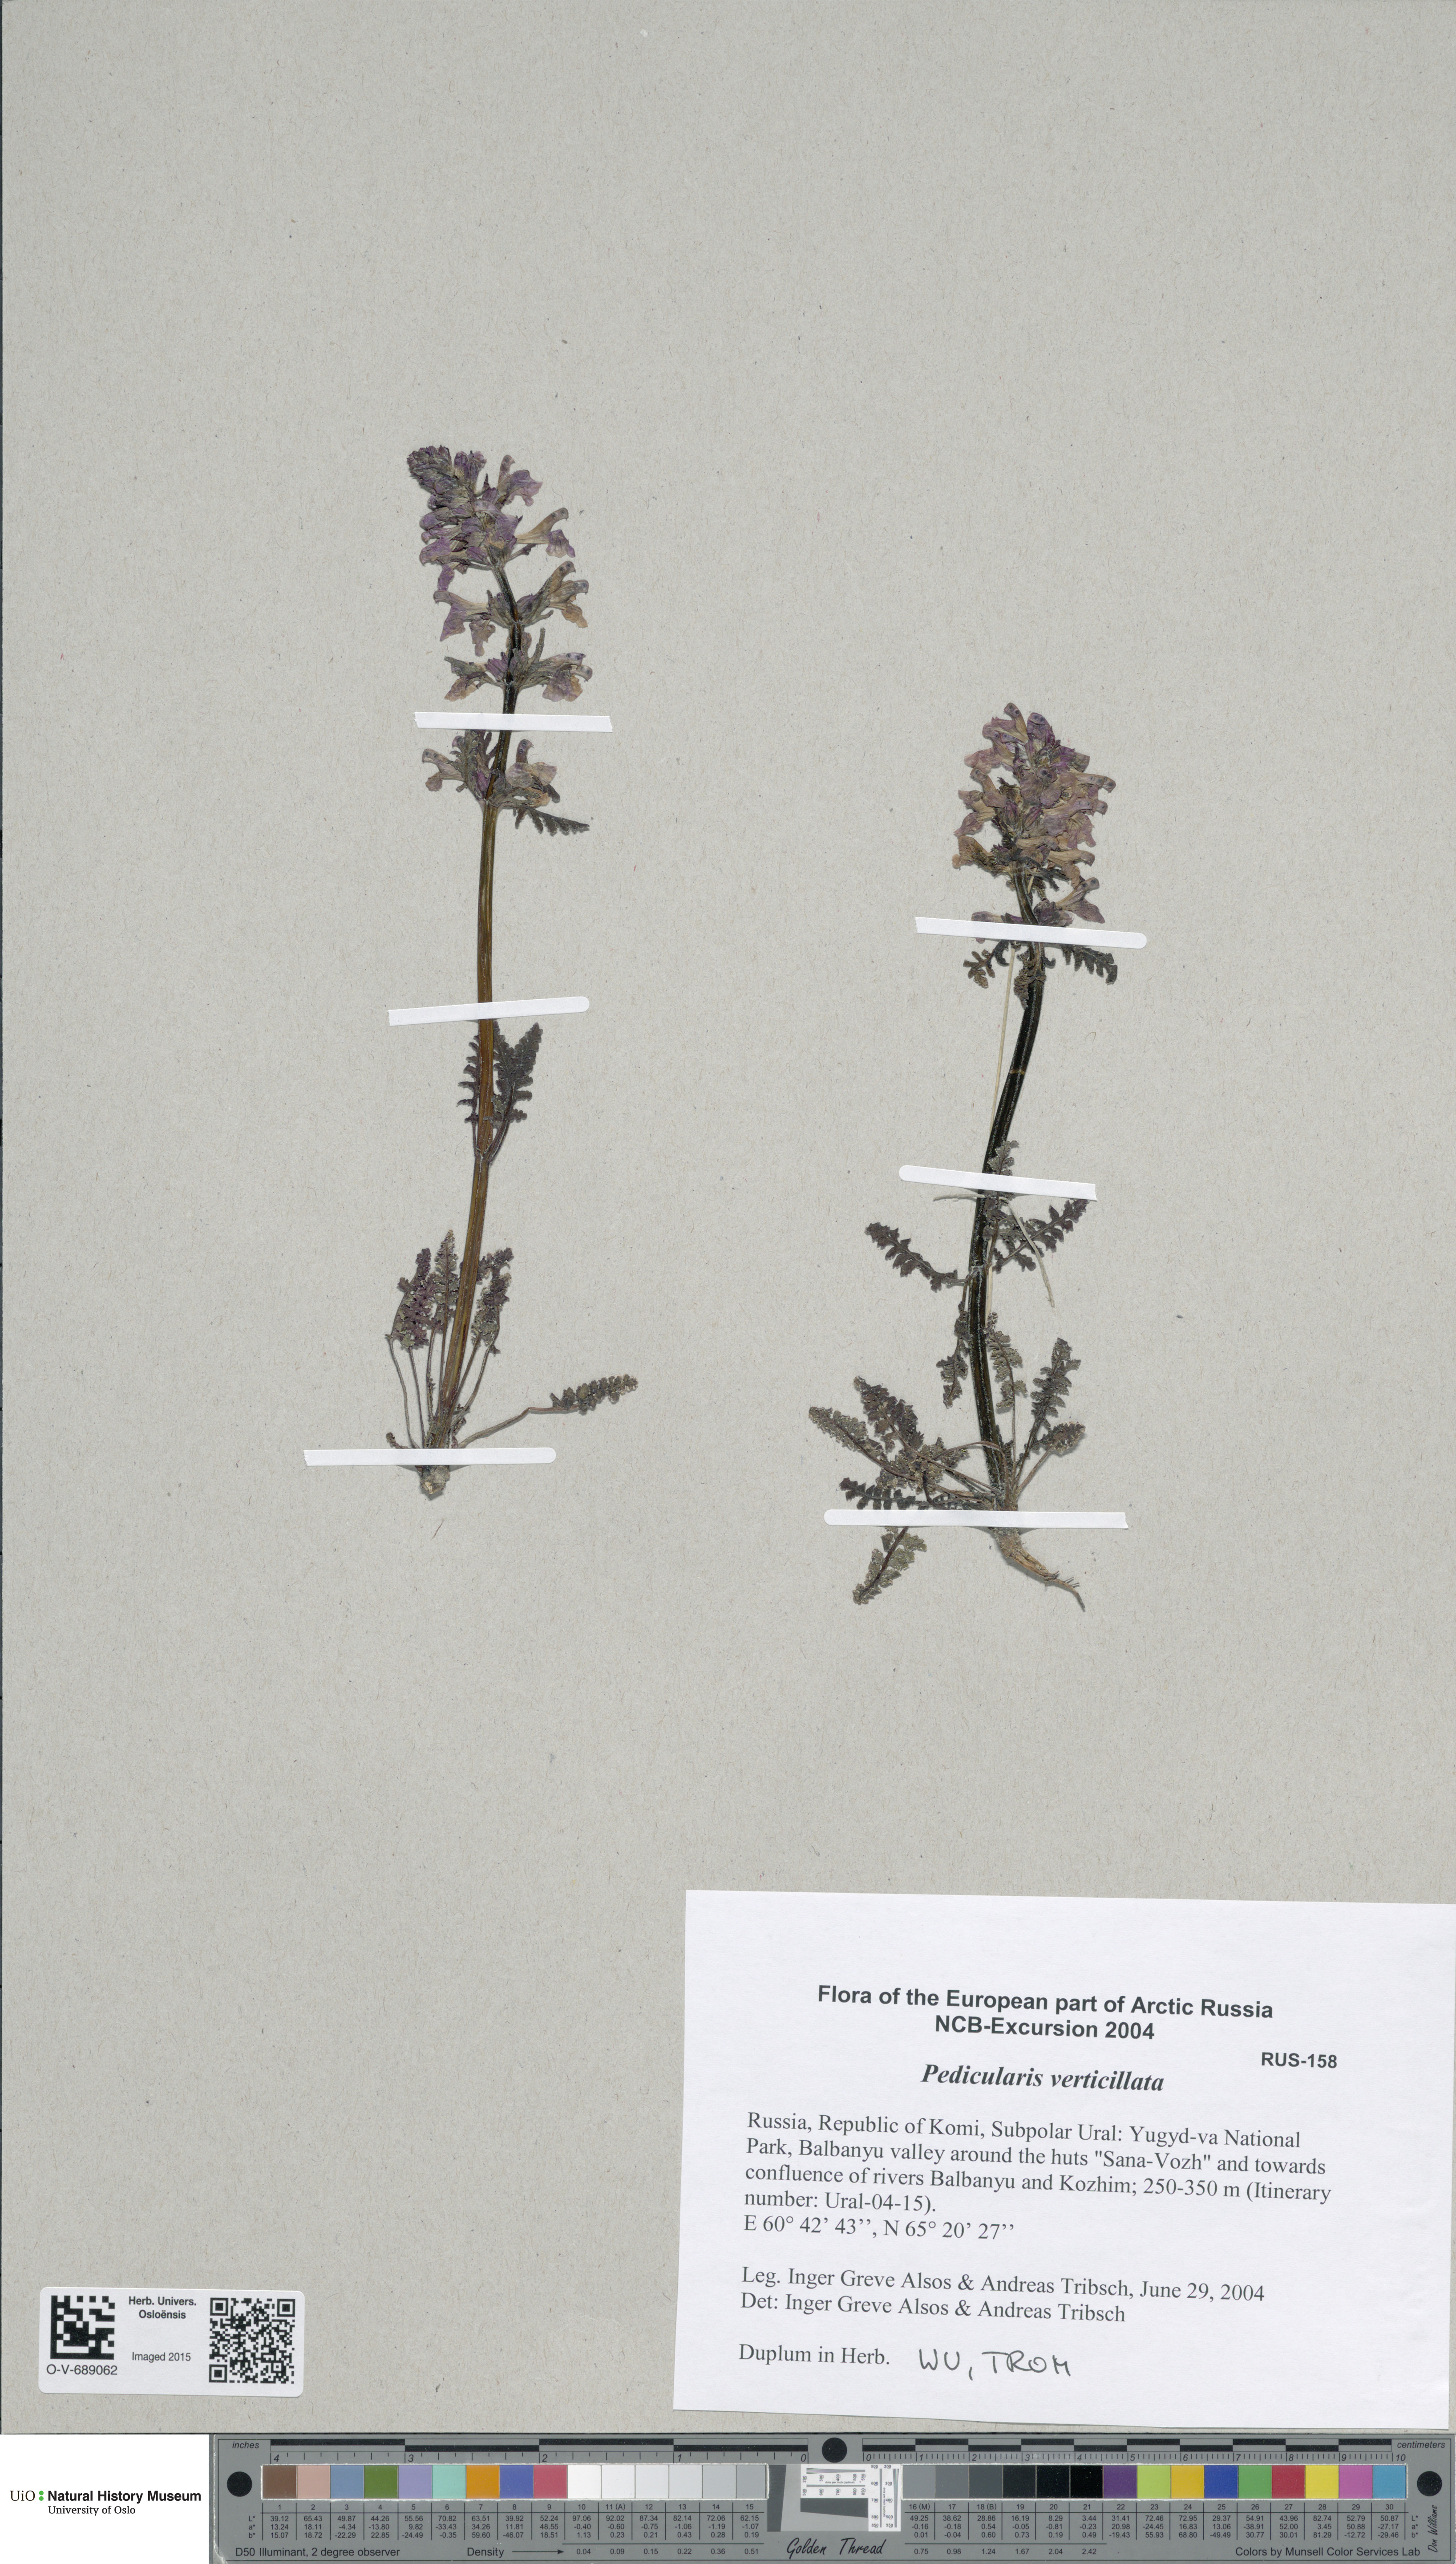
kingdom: Plantae
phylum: Tracheophyta
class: Magnoliopsida
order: Lamiales
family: Orobanchaceae
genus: Pedicularis
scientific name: Pedicularis verticillata
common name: Whorled lousewort
